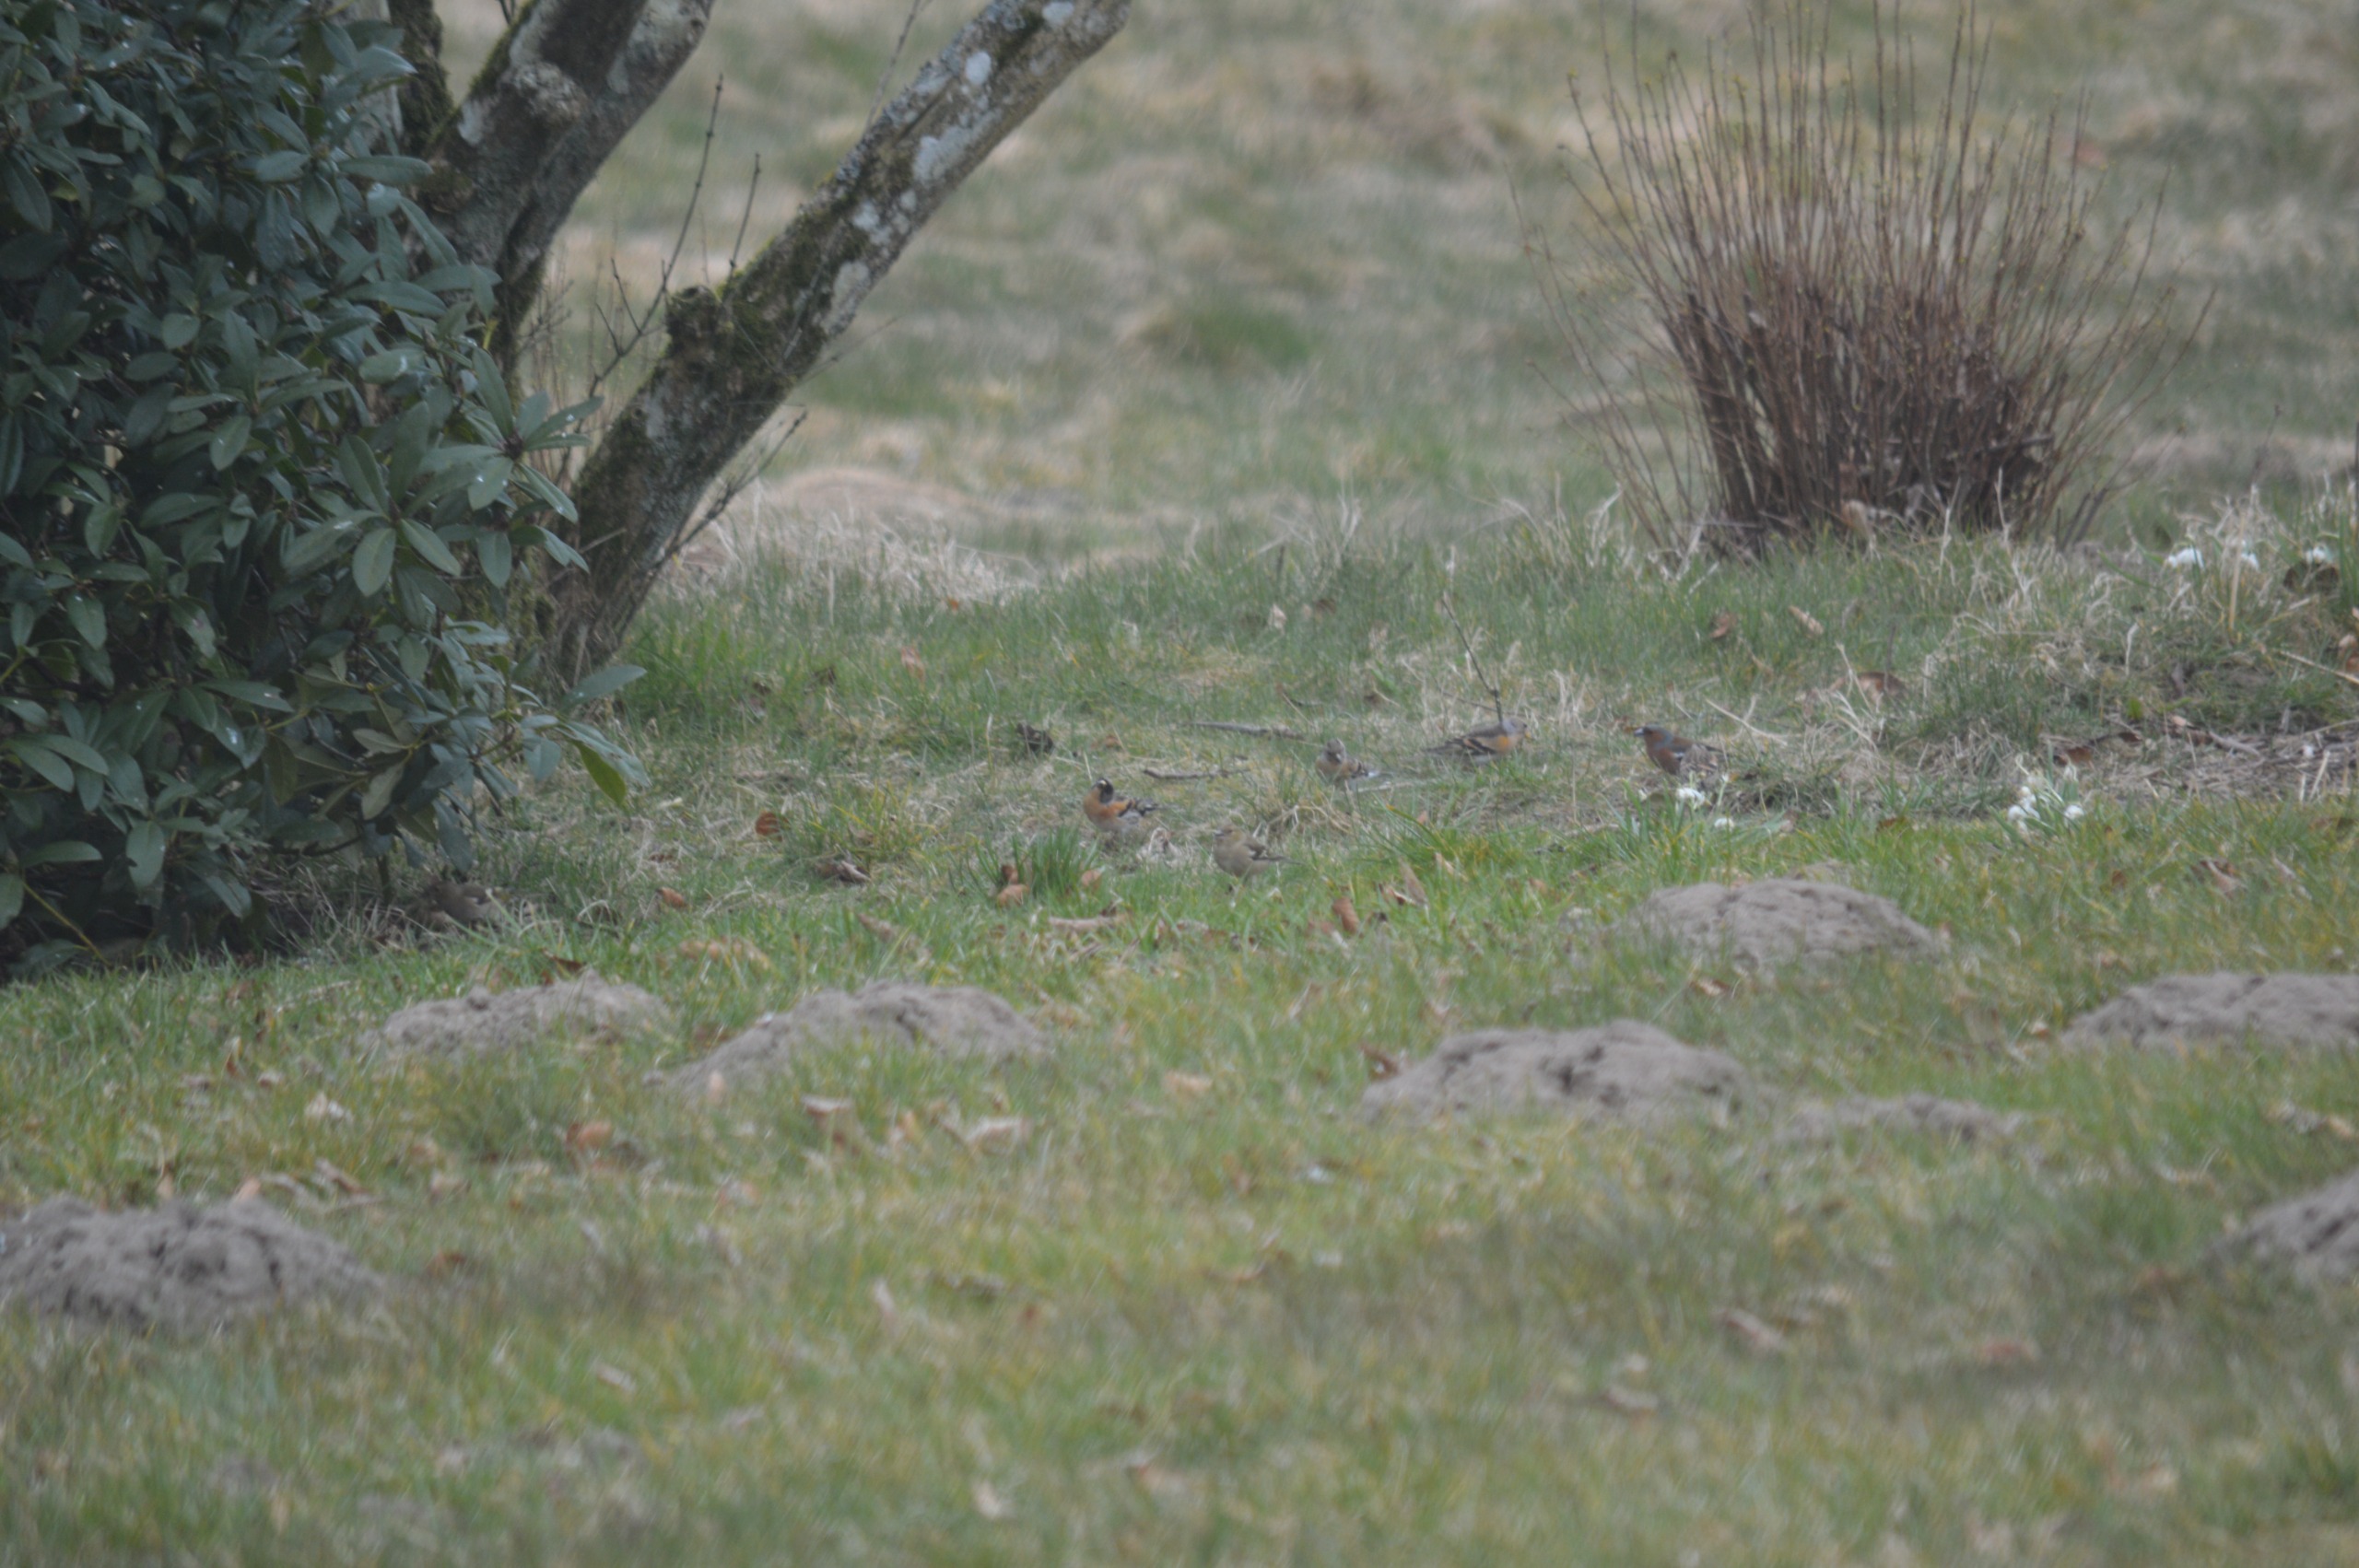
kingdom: Animalia
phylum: Chordata
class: Aves
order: Passeriformes
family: Fringillidae
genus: Fringilla
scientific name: Fringilla montifringilla
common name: Kvækerfinke
